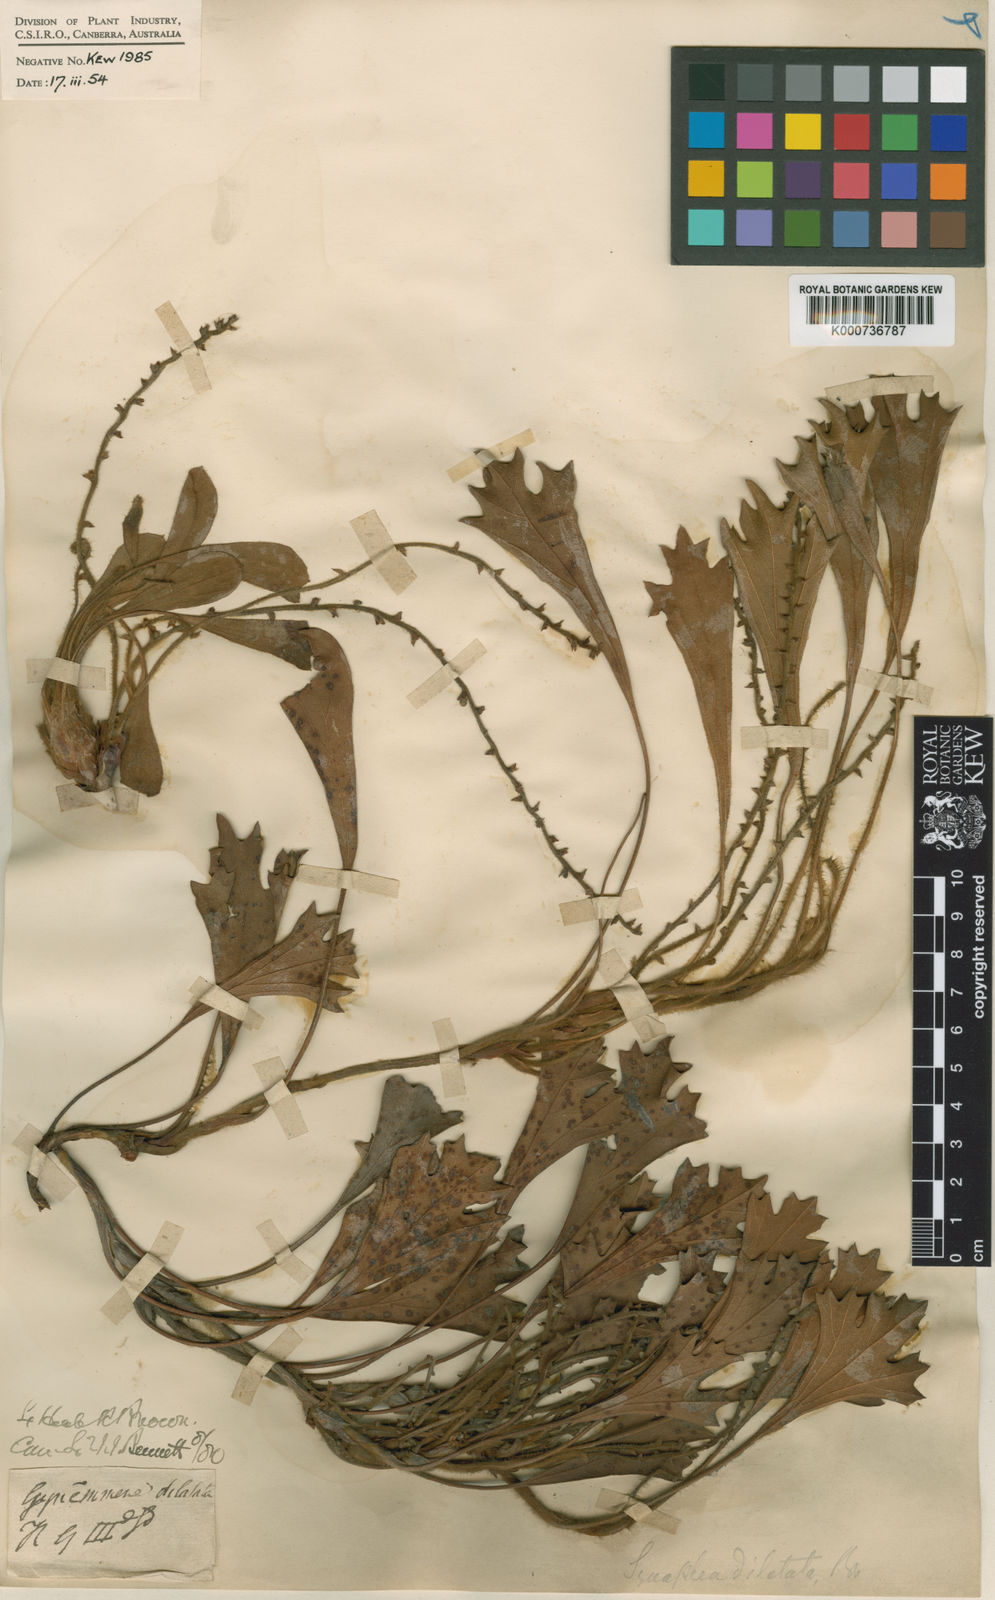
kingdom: Plantae
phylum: Tracheophyta
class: Magnoliopsida
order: Proteales
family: Proteaceae
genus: Synaphea
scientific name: Synaphea reticulata
